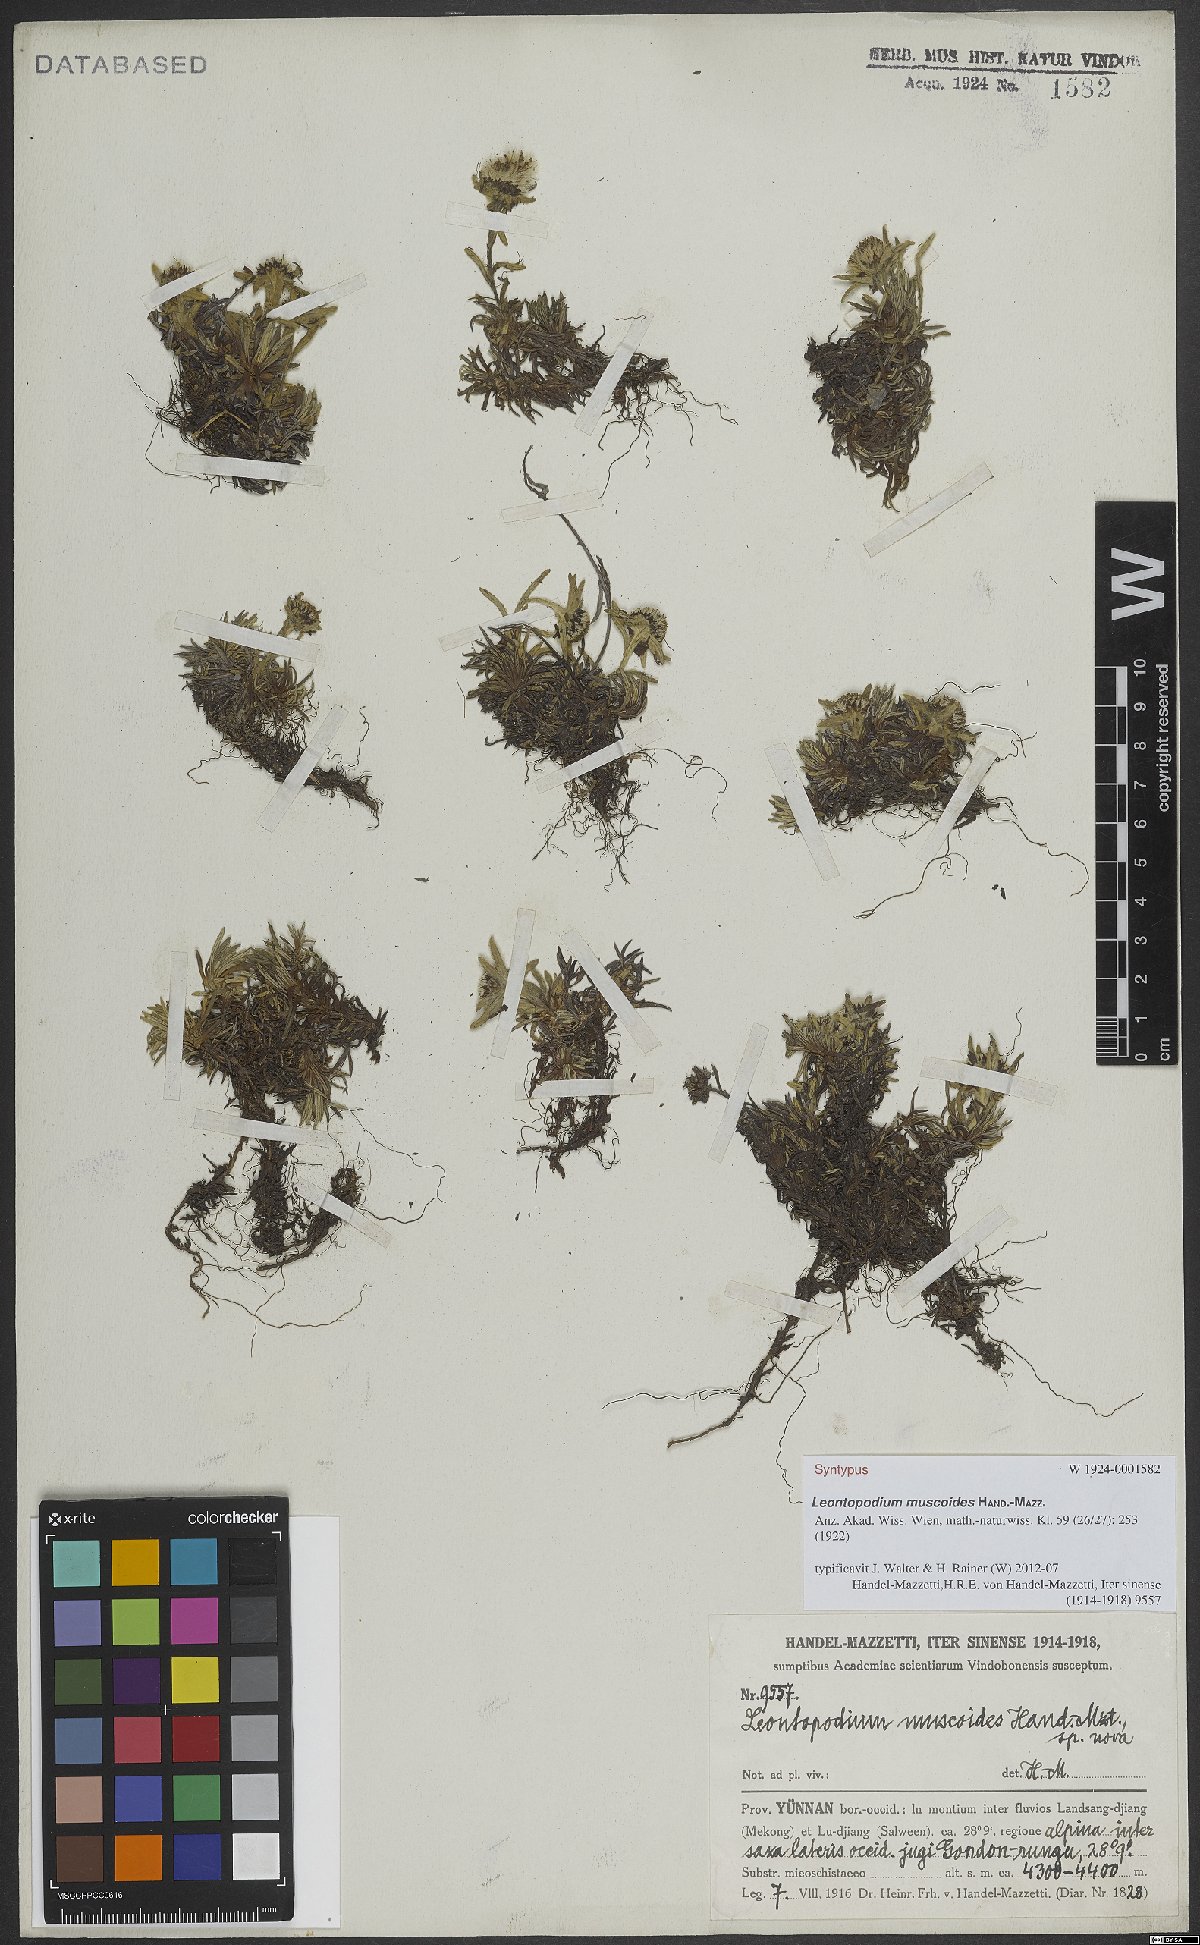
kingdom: Plantae
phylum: Tracheophyta
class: Magnoliopsida
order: Asterales
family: Asteraceae
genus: Leontopodium
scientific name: Leontopodium muscoides
